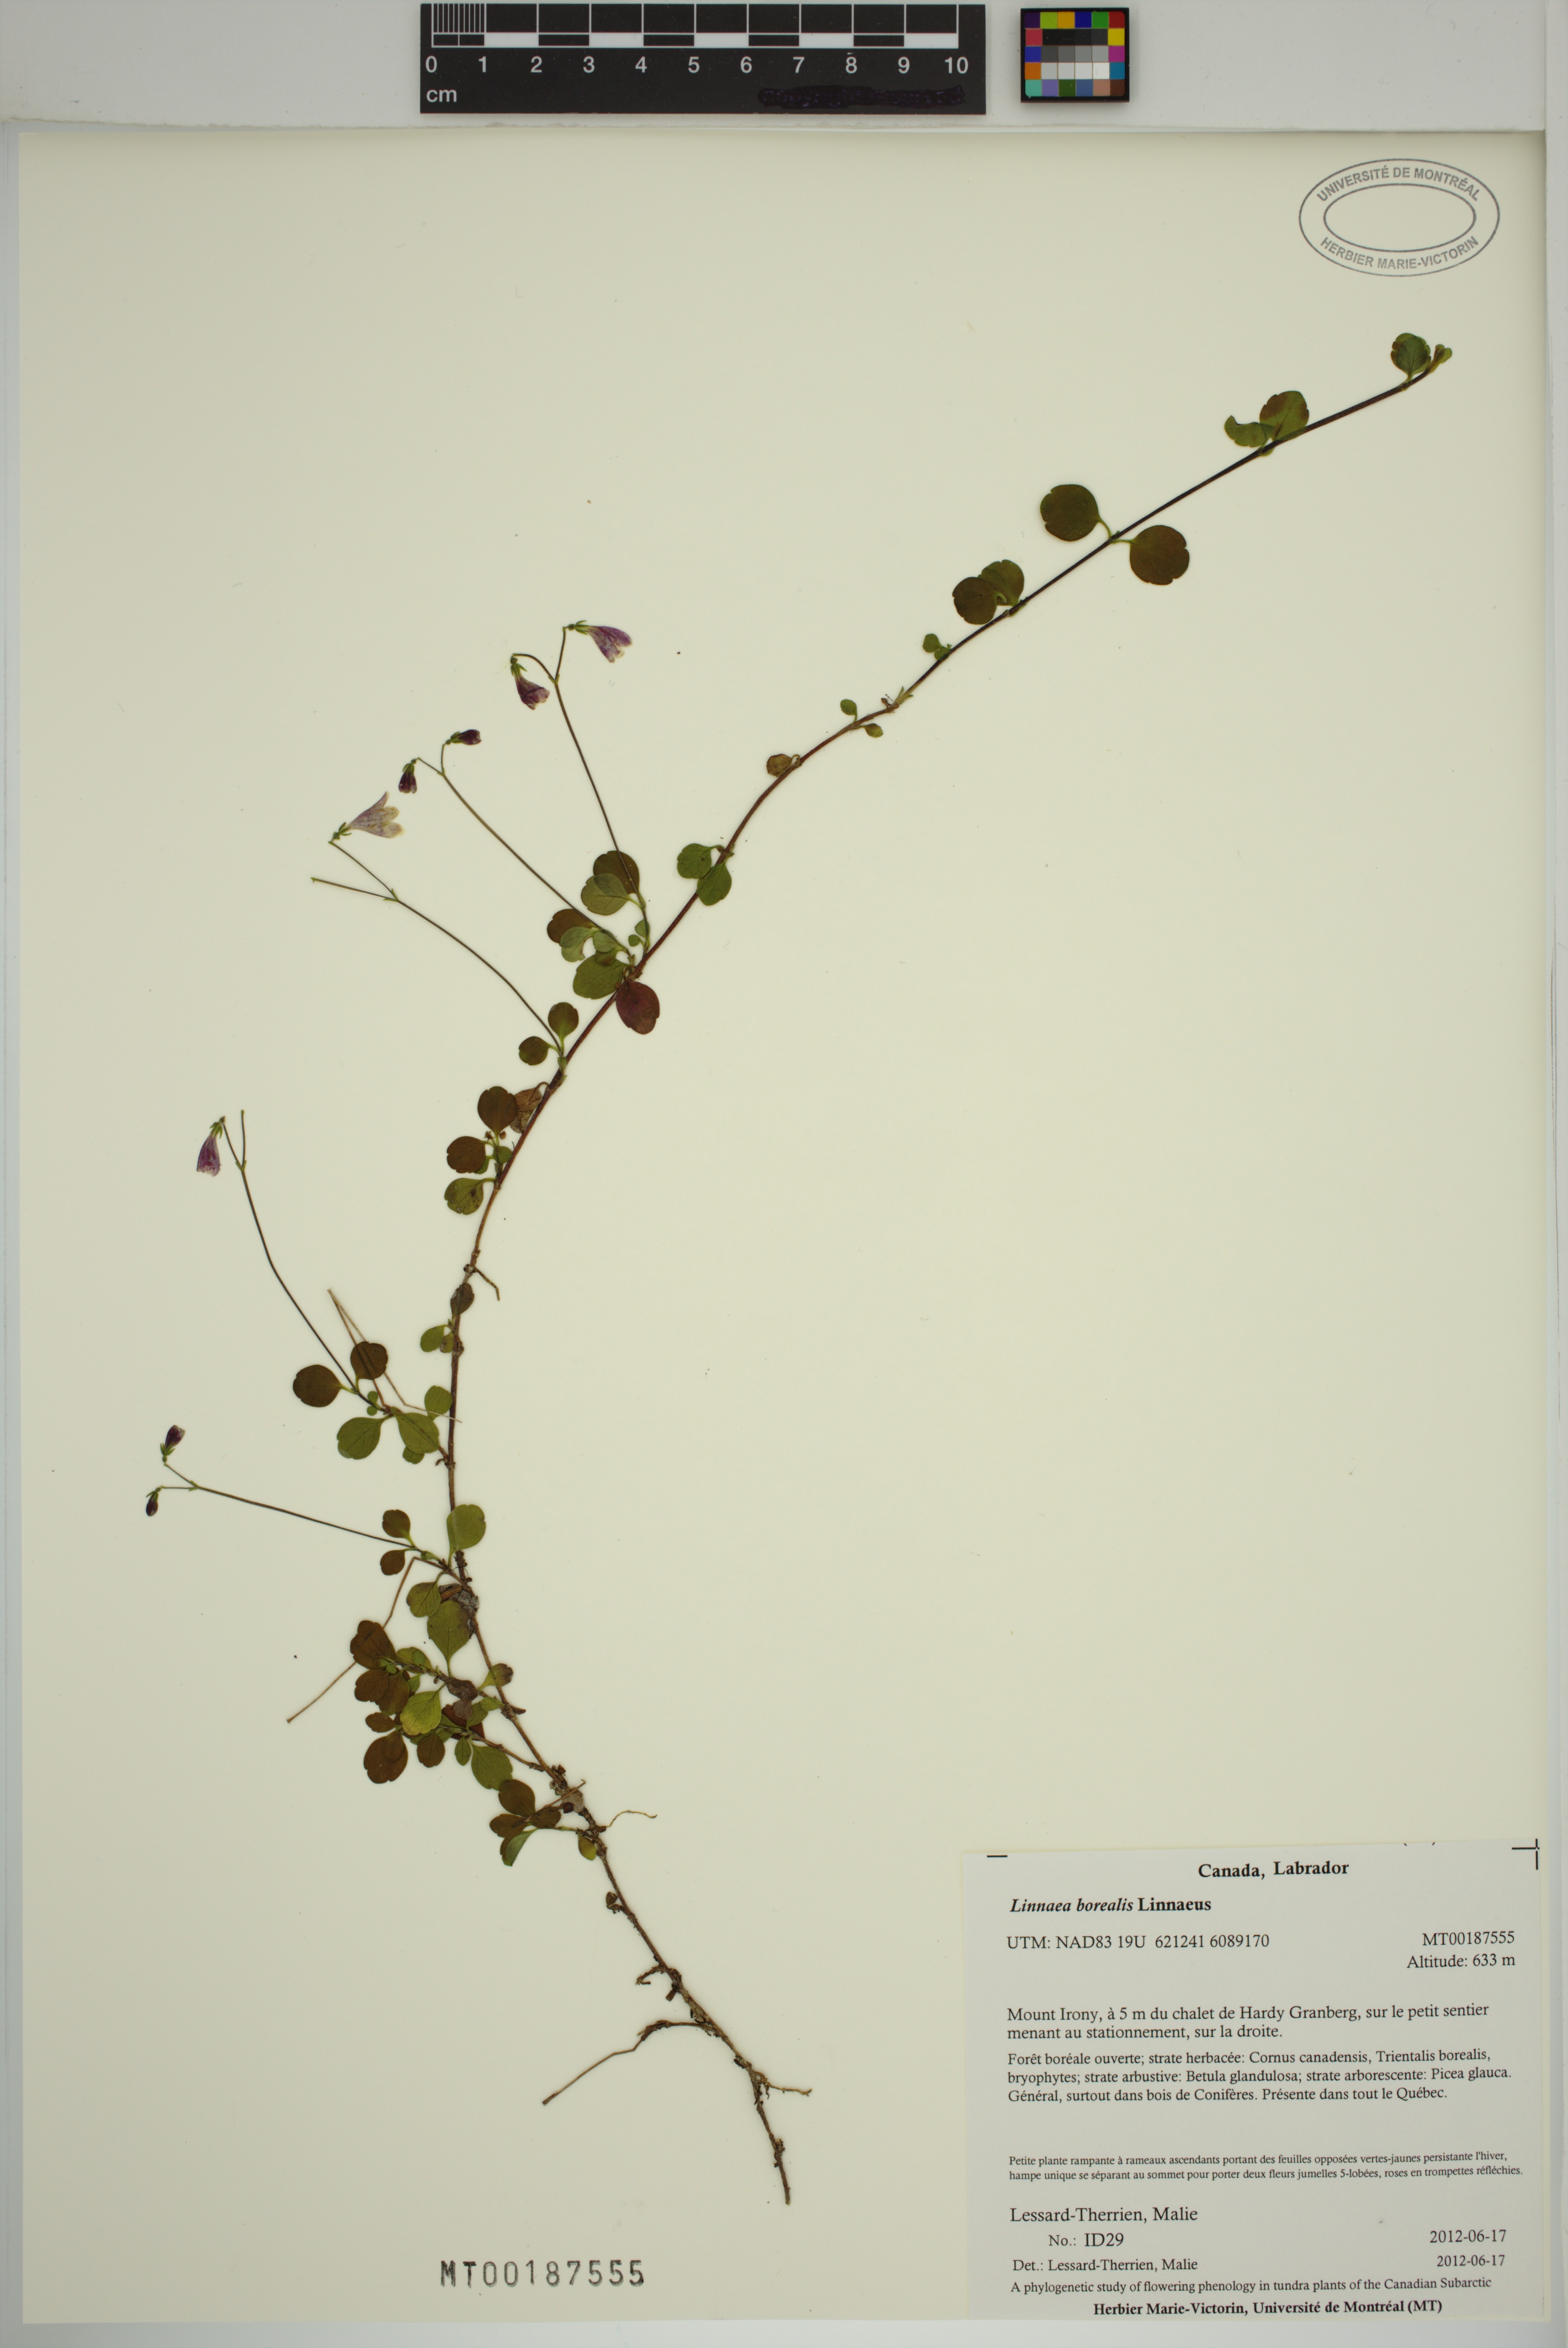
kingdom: Plantae
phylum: Tracheophyta
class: Magnoliopsida
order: Dipsacales
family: Caprifoliaceae
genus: Linnaea
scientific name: Linnaea borealis
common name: Twinflower
